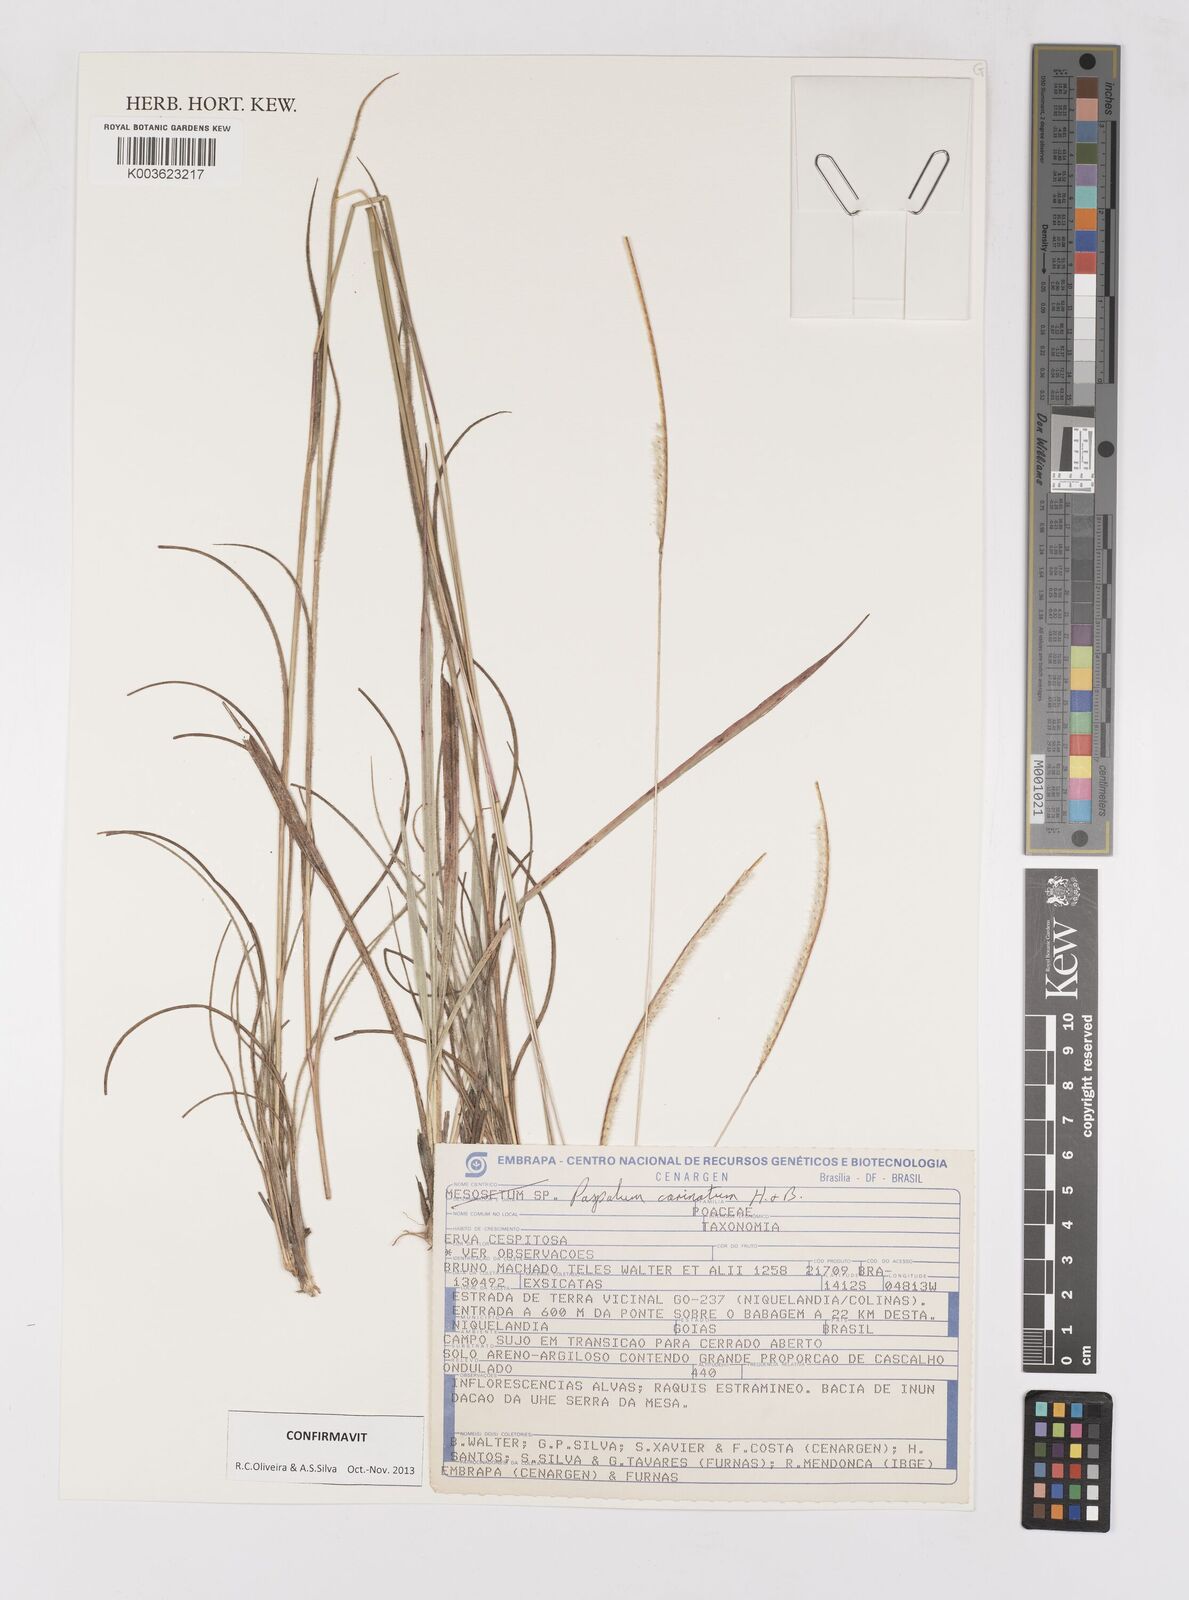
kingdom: Plantae
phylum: Tracheophyta
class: Liliopsida
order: Poales
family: Poaceae
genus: Paspalum
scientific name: Paspalum carinatum
